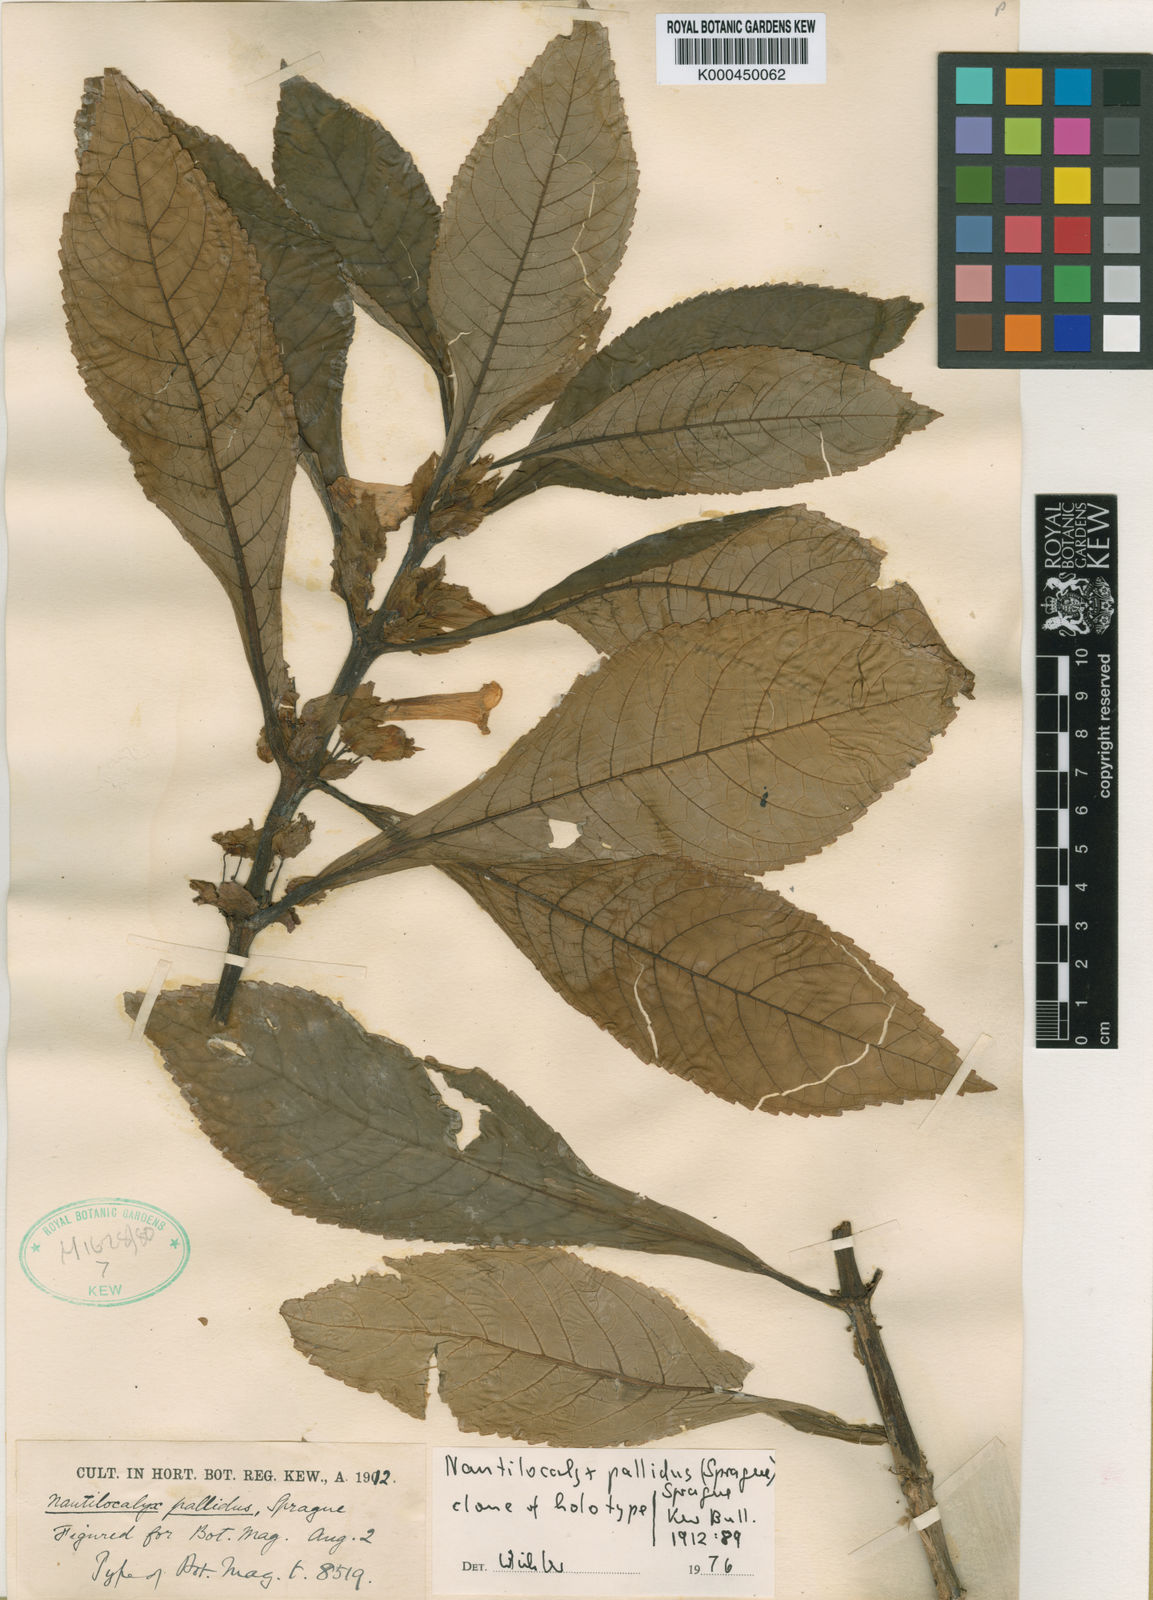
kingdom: Plantae
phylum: Tracheophyta
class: Magnoliopsida
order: Lamiales
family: Gesneriaceae
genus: Nautilocalyx
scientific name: Nautilocalyx pallidus
